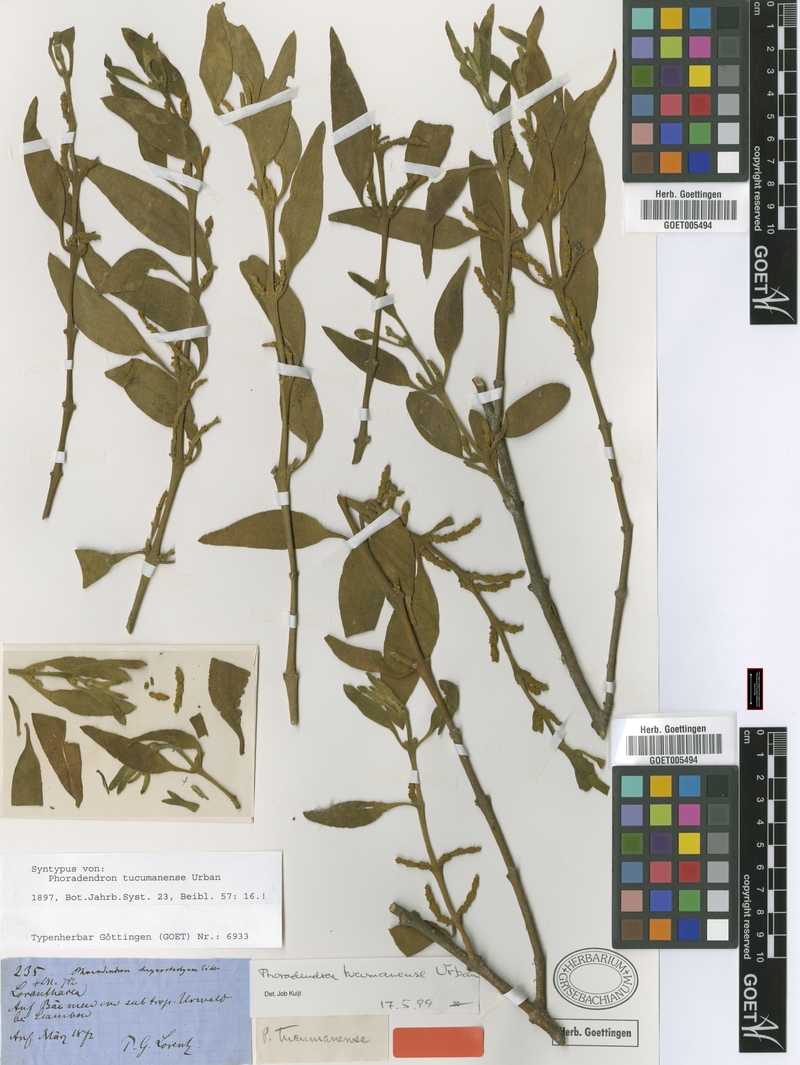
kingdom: Plantae
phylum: Tracheophyta
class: Magnoliopsida
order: Santalales
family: Viscaceae
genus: Phoradendron
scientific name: Phoradendron tucumanense
